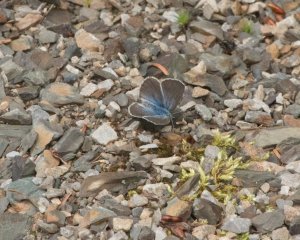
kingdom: Animalia
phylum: Arthropoda
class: Insecta
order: Lepidoptera
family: Lycaenidae
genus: Glaucopsyche
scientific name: Glaucopsyche lygdamus
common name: Silvery Blue
